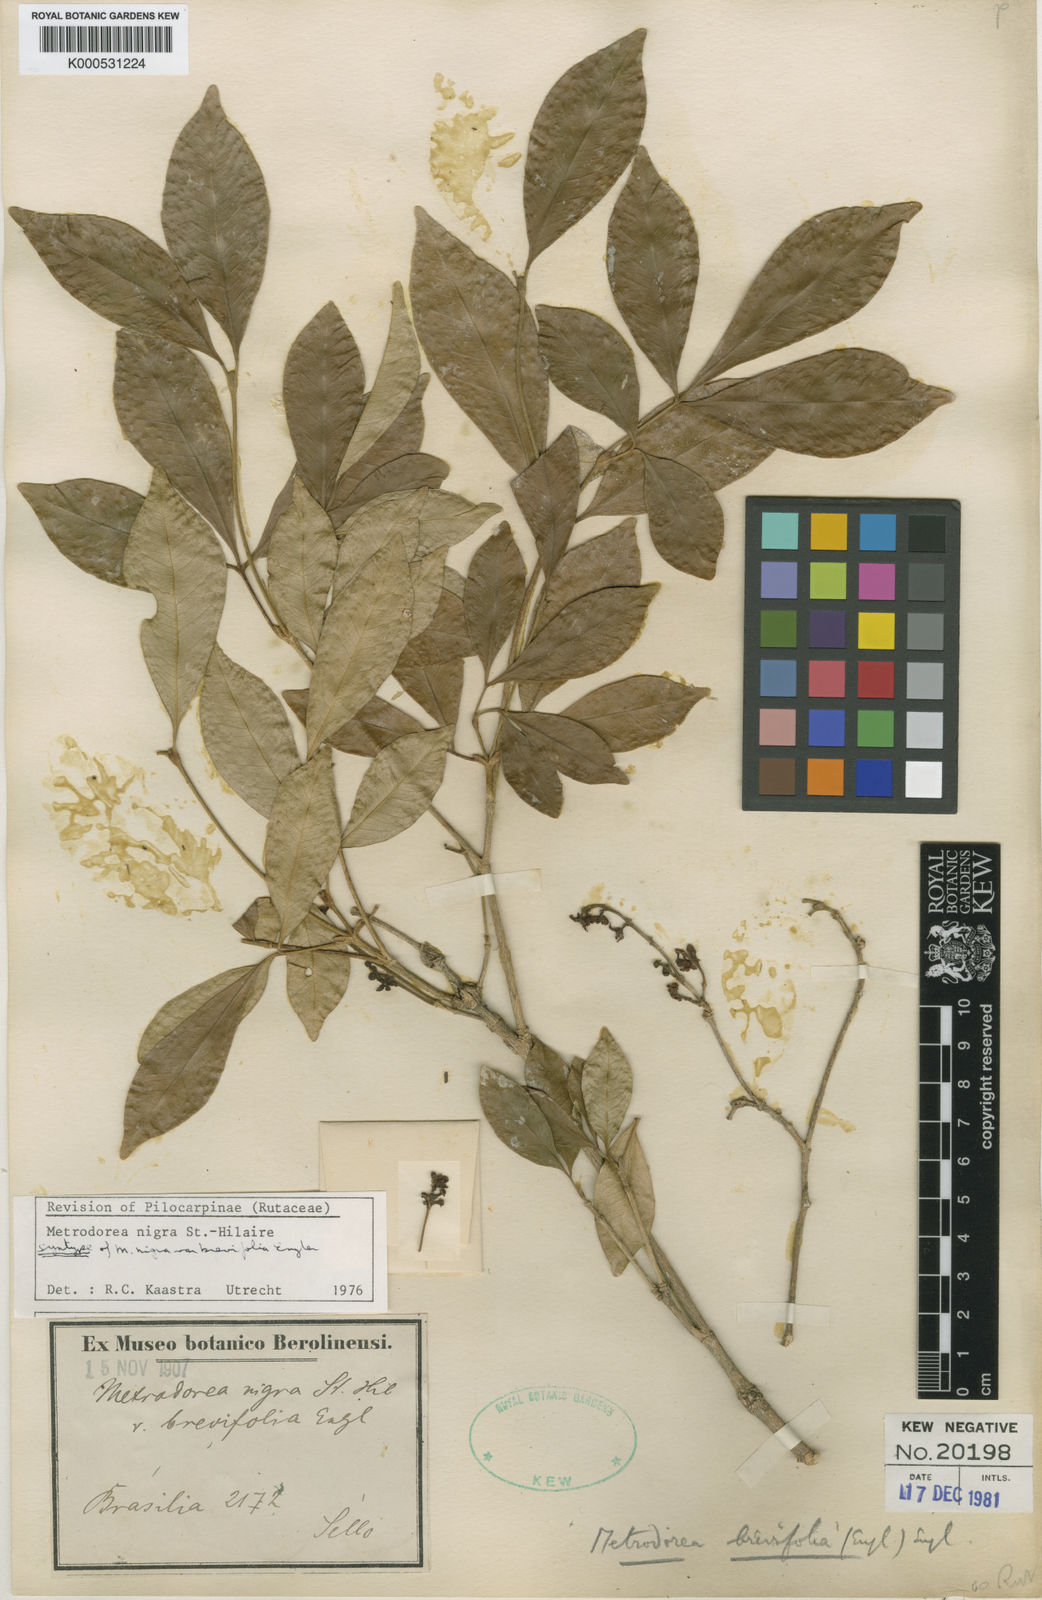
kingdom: Plantae
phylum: Tracheophyta
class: Magnoliopsida
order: Sapindales
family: Rutaceae
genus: Metrodorea
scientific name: Metrodorea nigra
